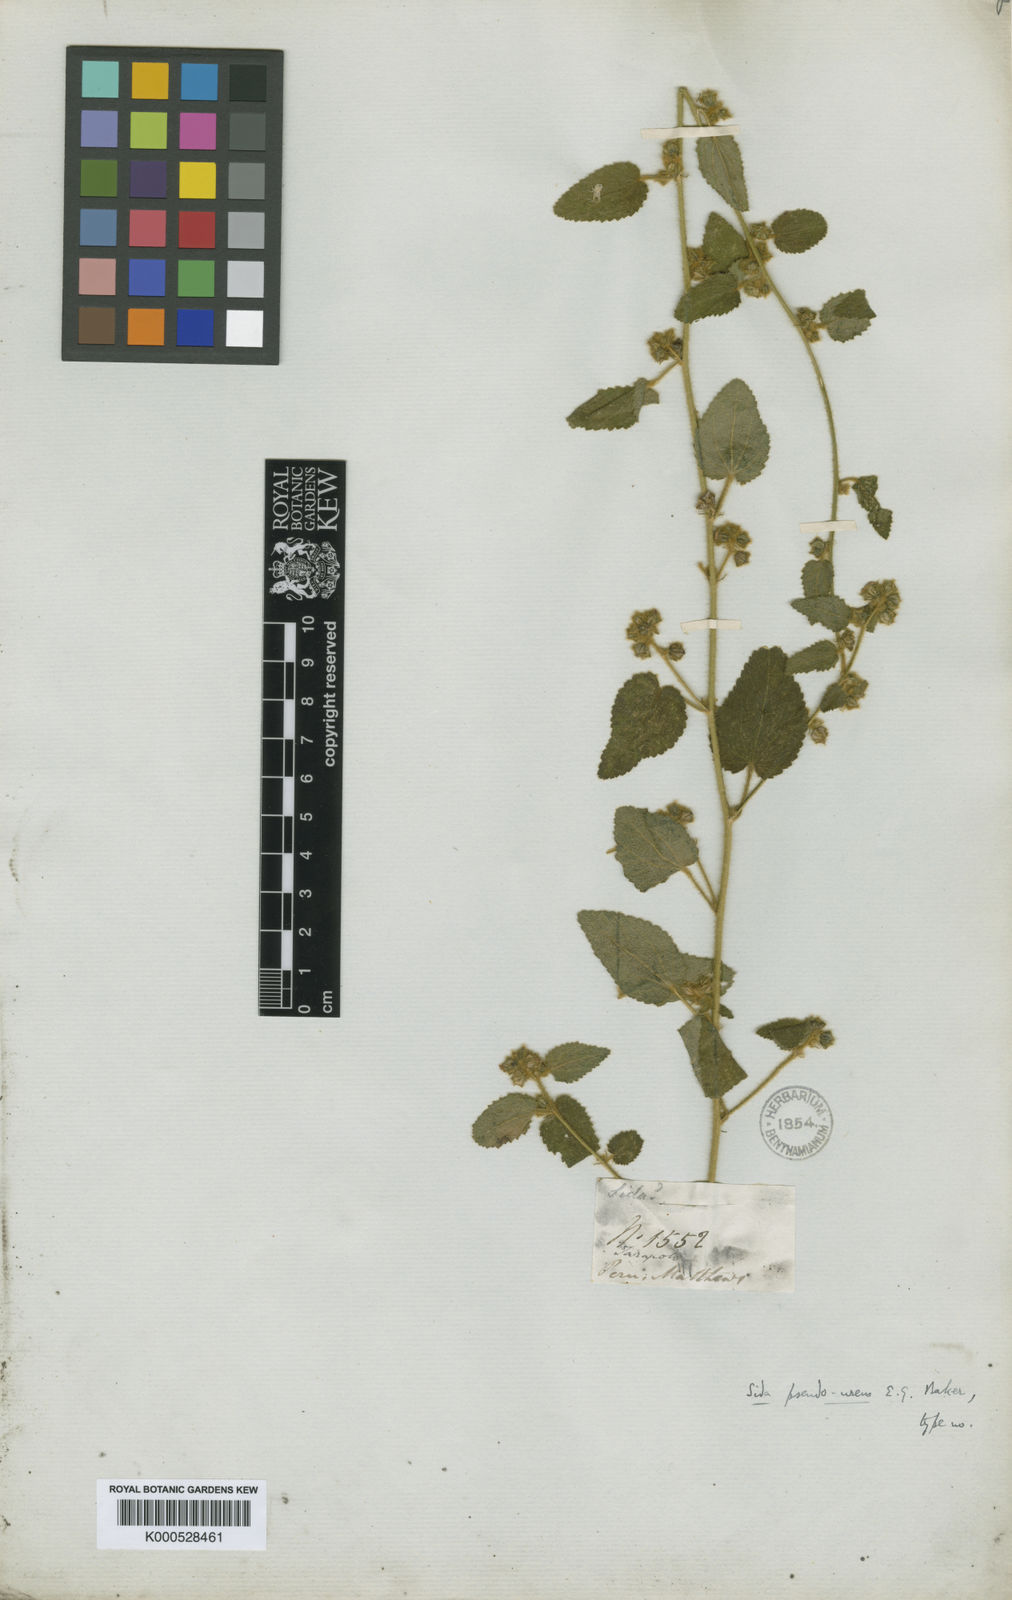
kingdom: Plantae
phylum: Tracheophyta
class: Magnoliopsida
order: Malvales
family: Malvaceae
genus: Sida
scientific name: Sida rufescens
